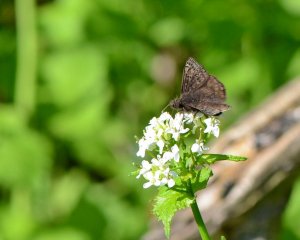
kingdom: Animalia
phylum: Arthropoda
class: Insecta
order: Lepidoptera
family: Hesperiidae
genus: Gesta
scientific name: Gesta
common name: Juvenal's Duskywing
